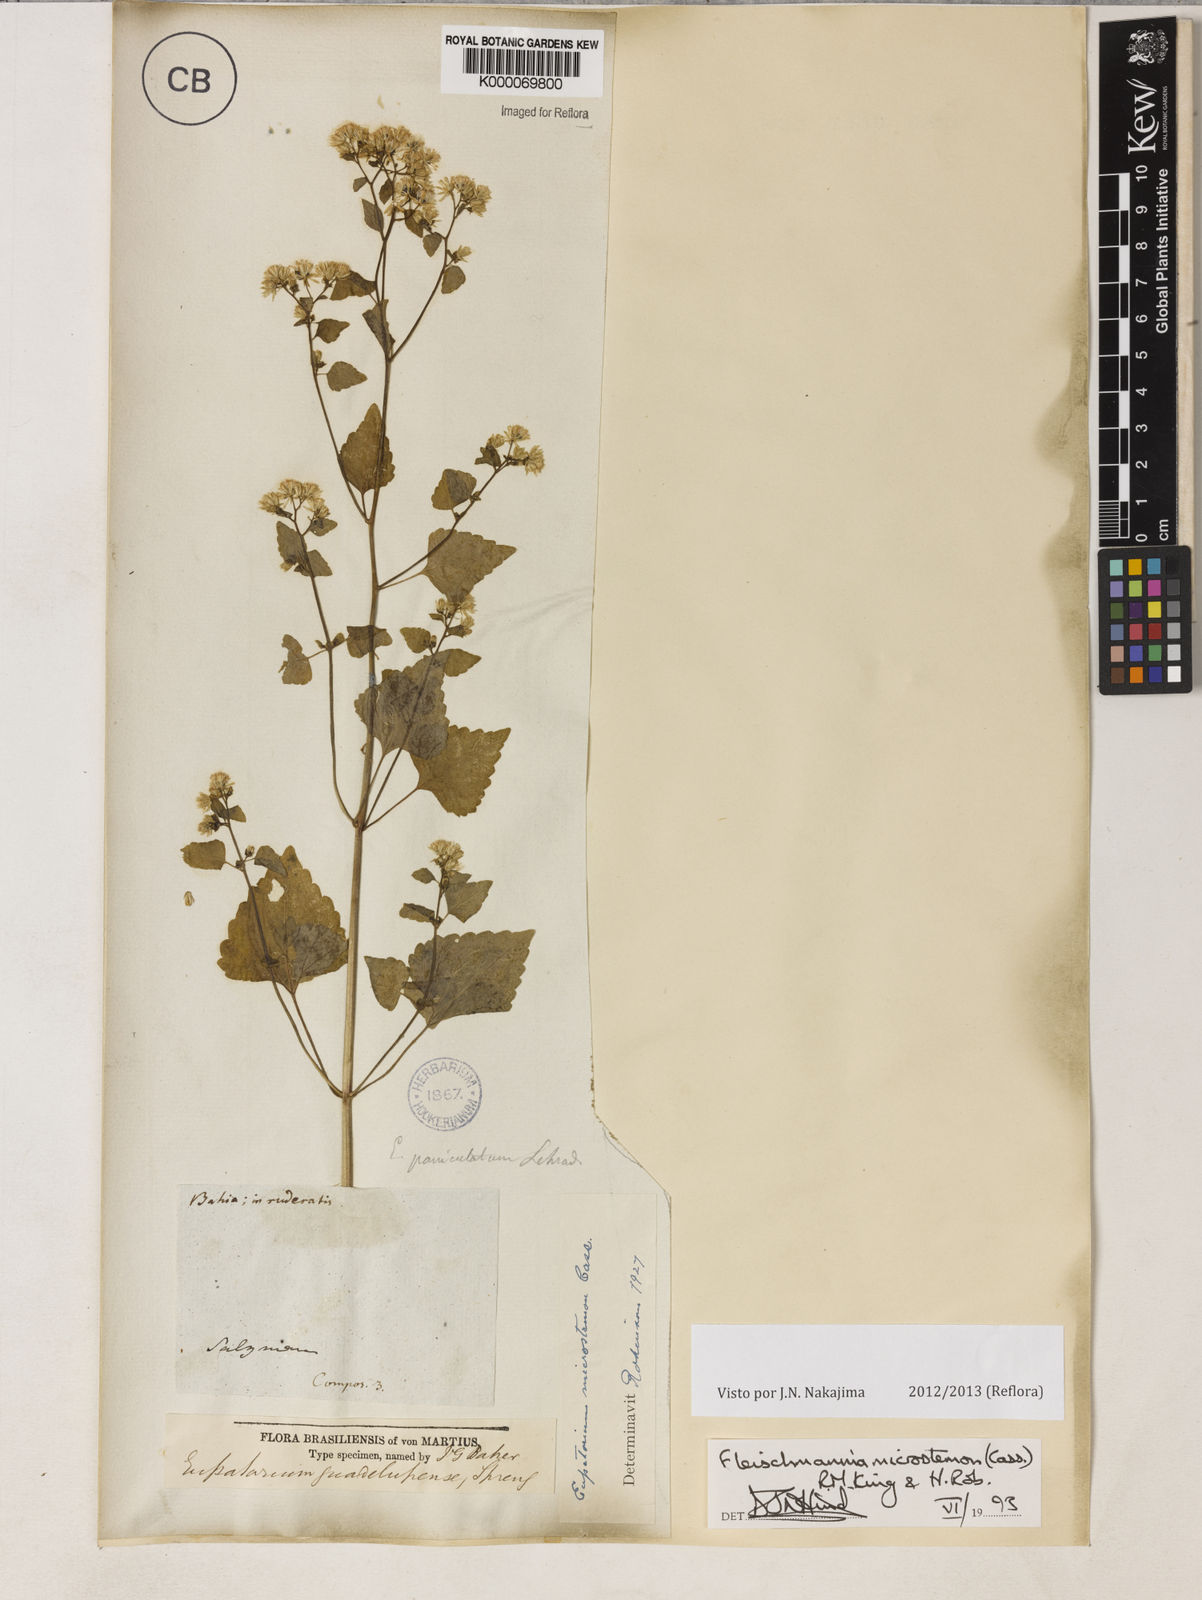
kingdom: Plantae
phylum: Tracheophyta
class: Magnoliopsida
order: Asterales
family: Asteraceae
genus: Fleischmannia
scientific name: Fleischmannia microstemon
